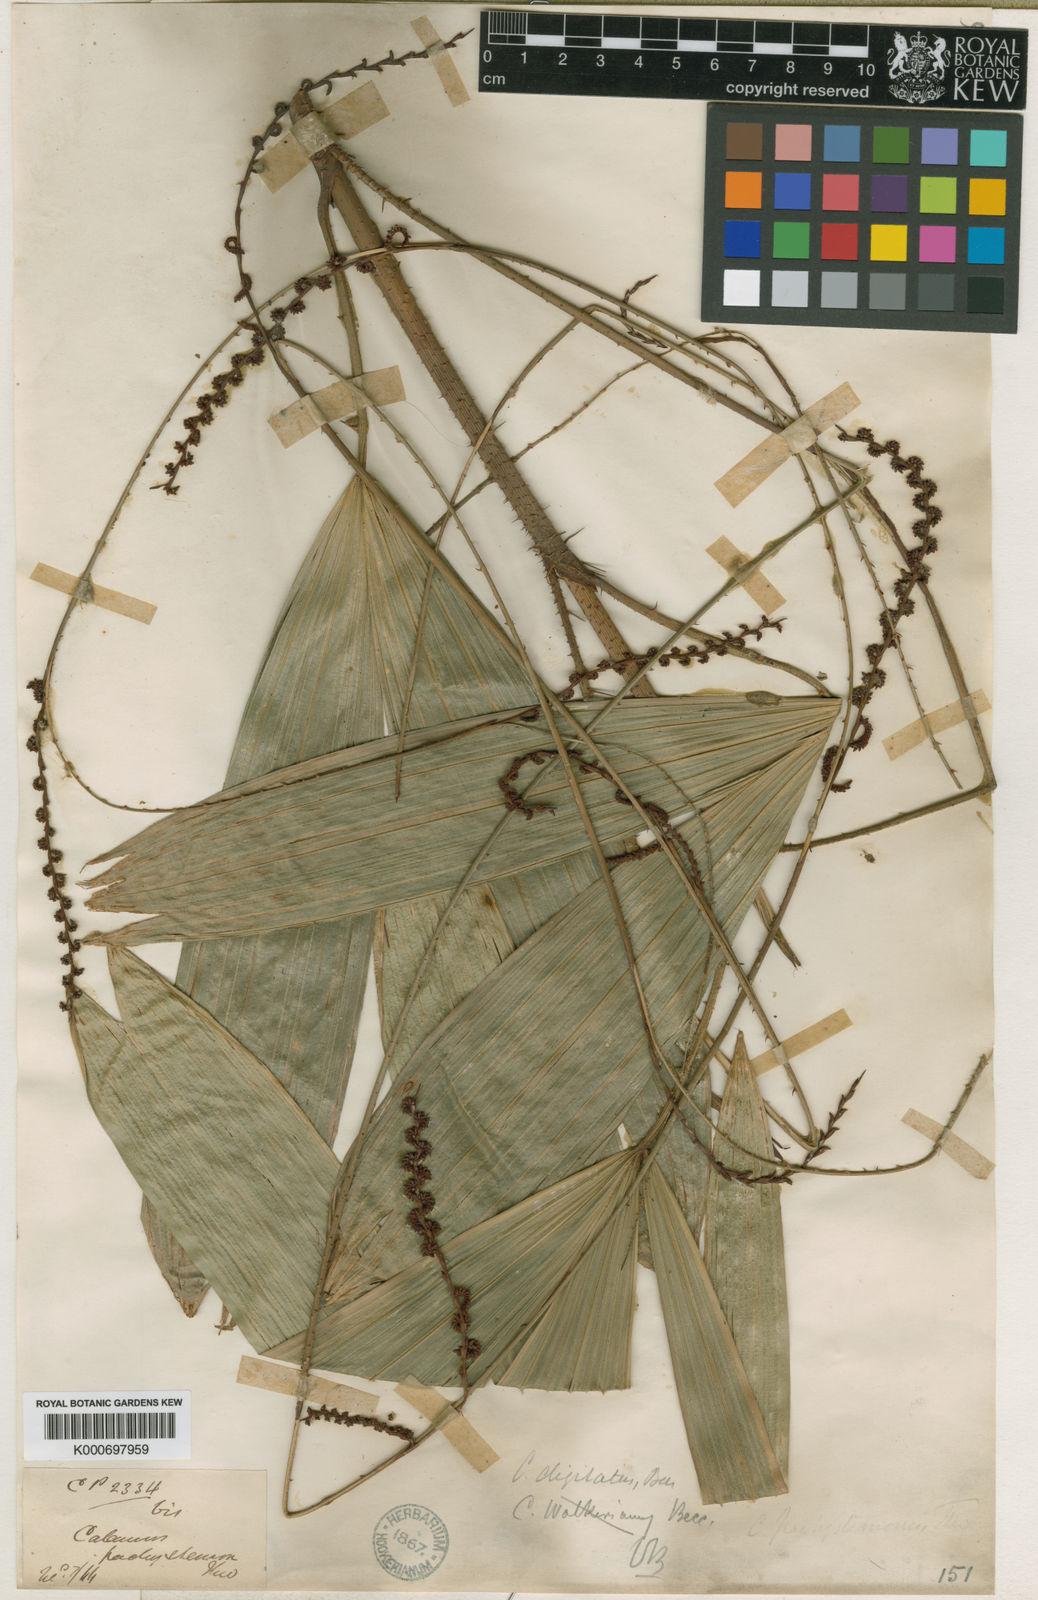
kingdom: Plantae
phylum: Tracheophyta
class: Liliopsida
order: Arecales
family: Arecaceae
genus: Calamus
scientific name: Calamus digitatus
